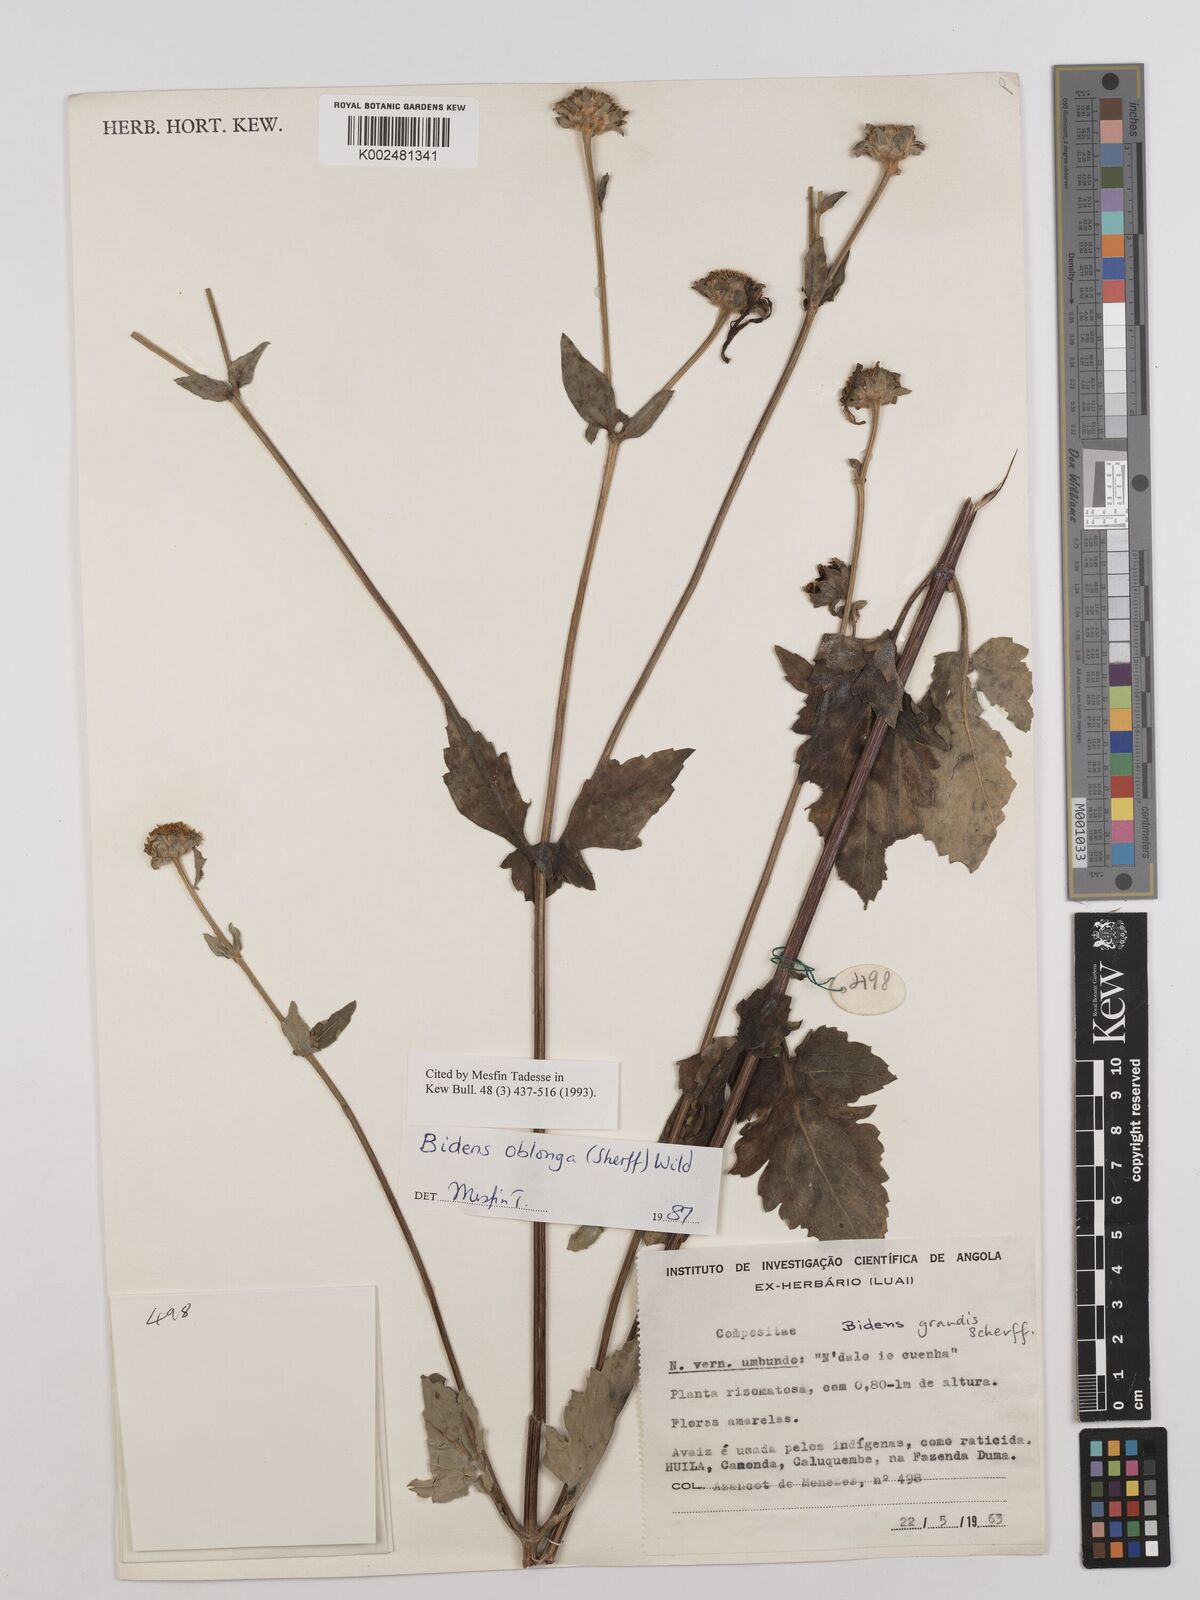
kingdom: Plantae
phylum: Tracheophyta
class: Magnoliopsida
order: Asterales
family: Asteraceae
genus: Bidens
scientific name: Bidens oblonga
